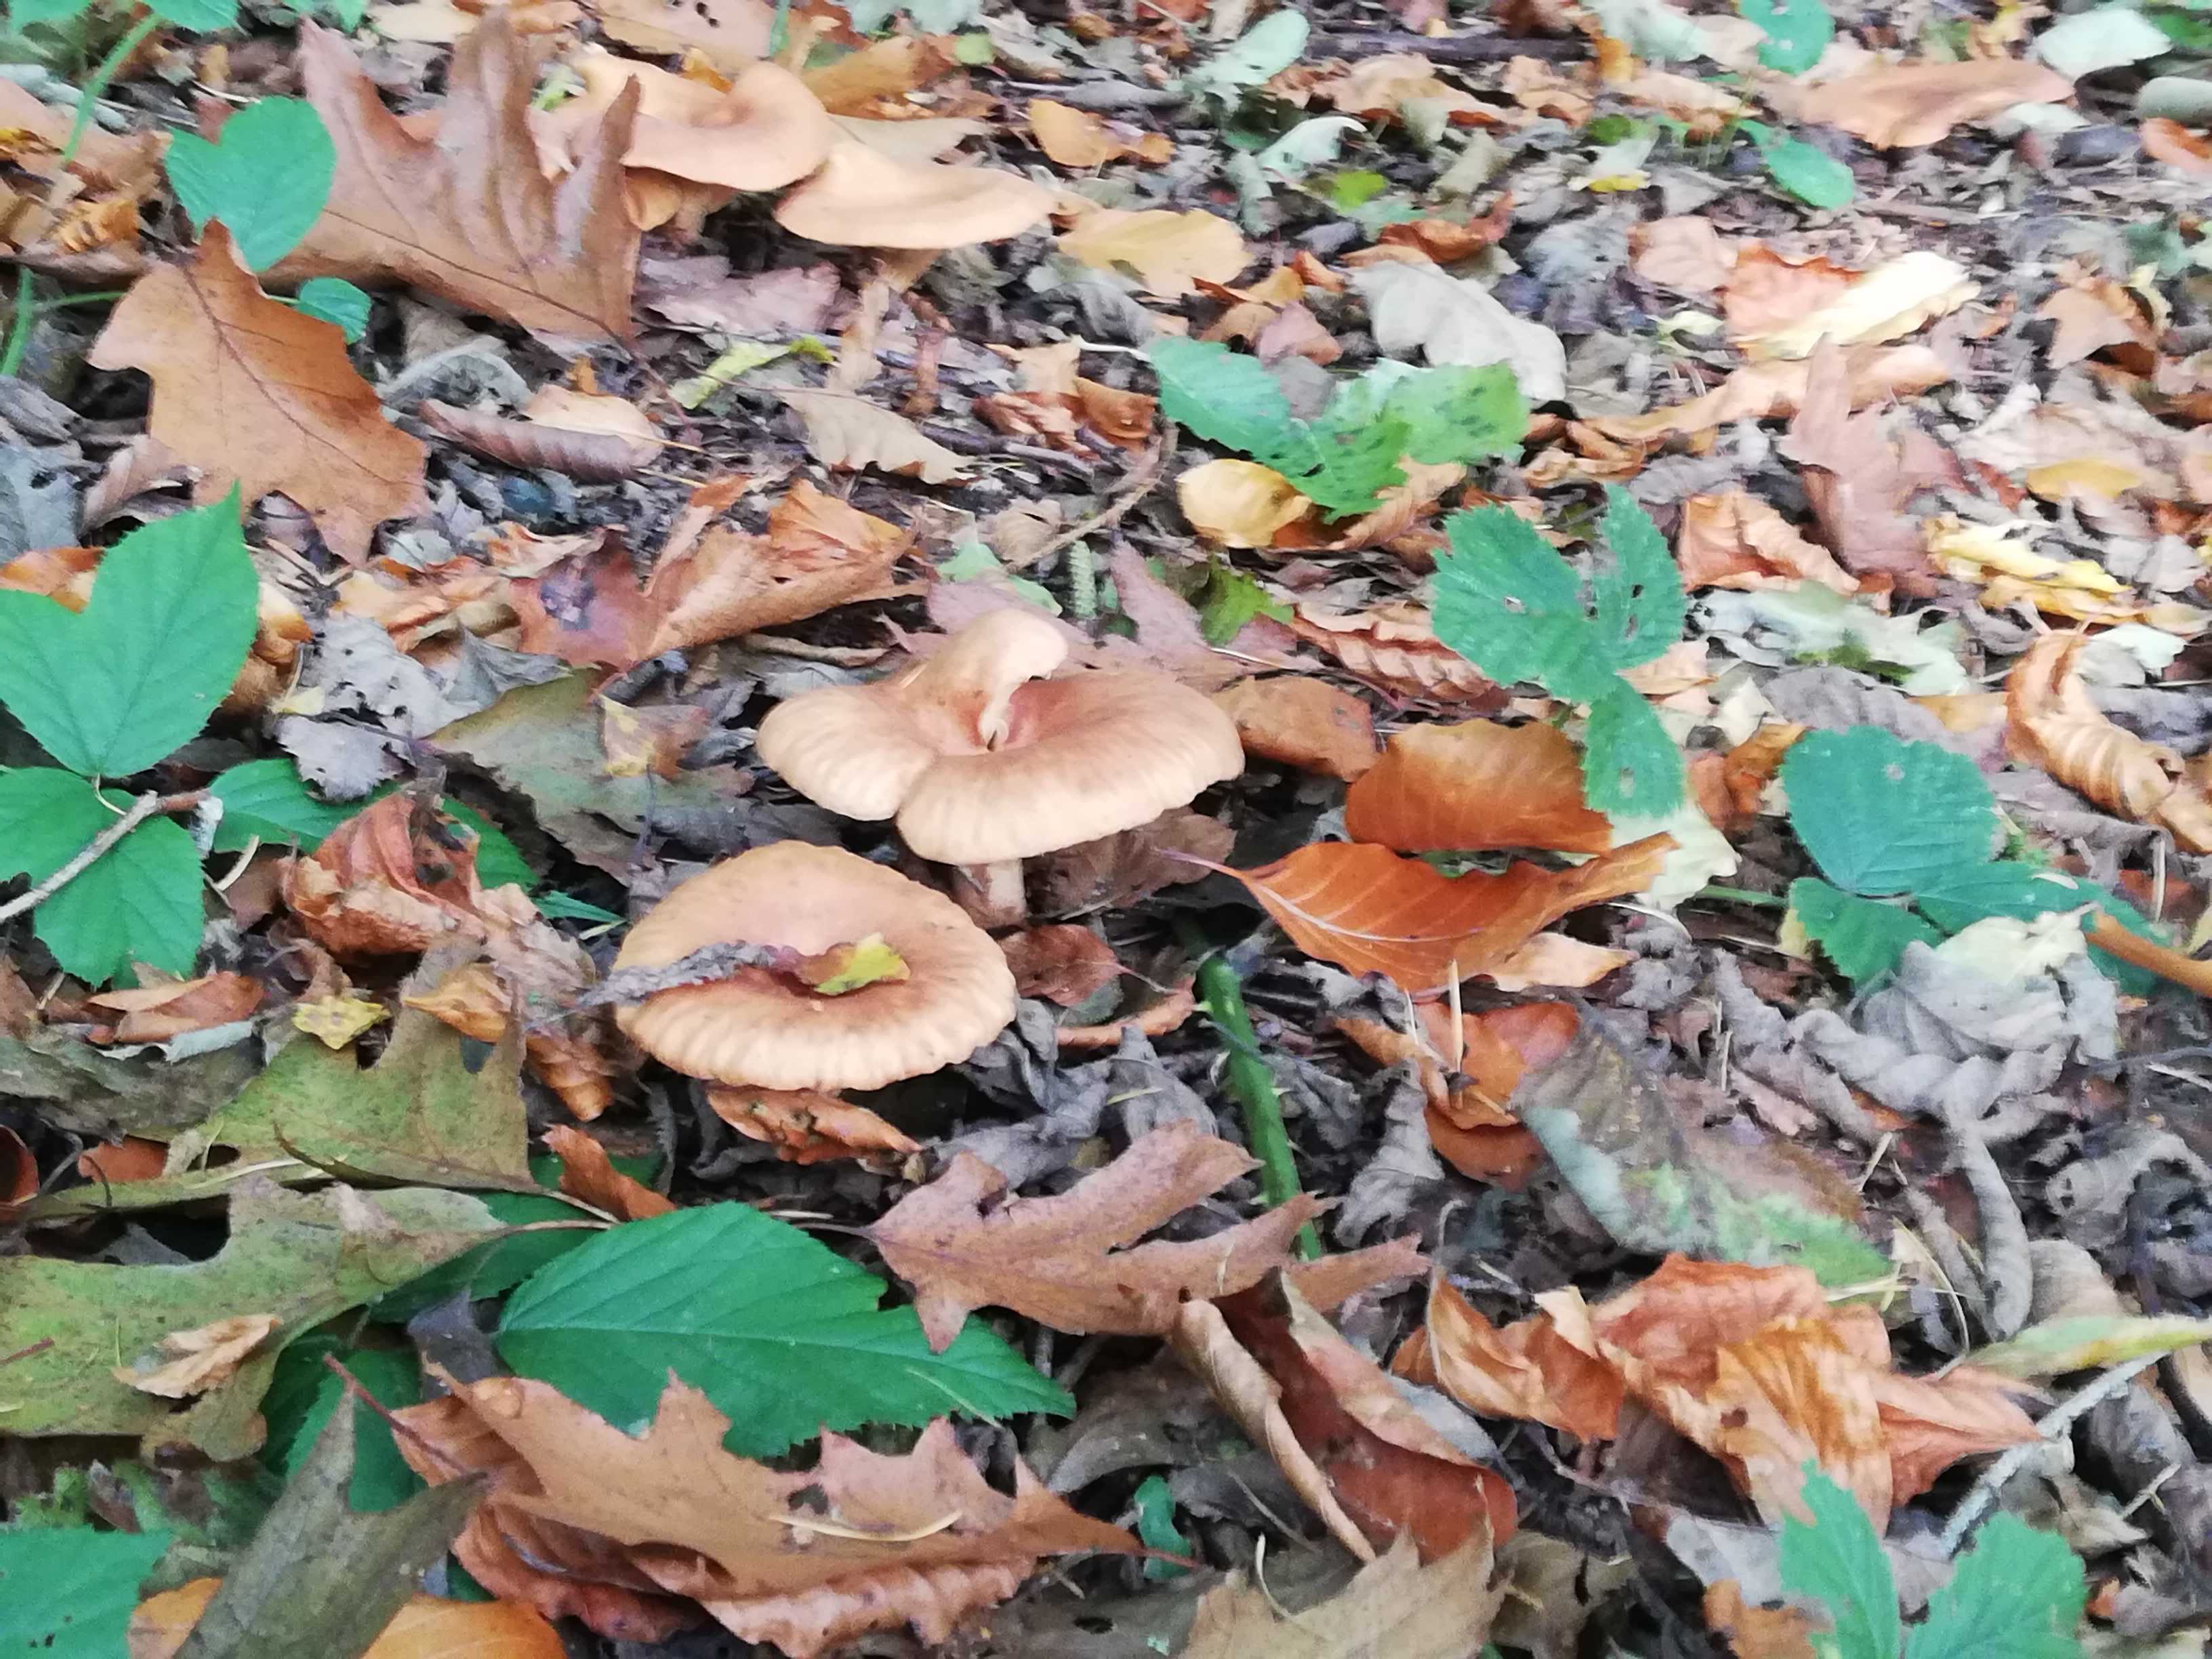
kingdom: Fungi
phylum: Basidiomycota
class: Agaricomycetes
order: Agaricales
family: Tricholomataceae
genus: Paralepista
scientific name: Paralepista
